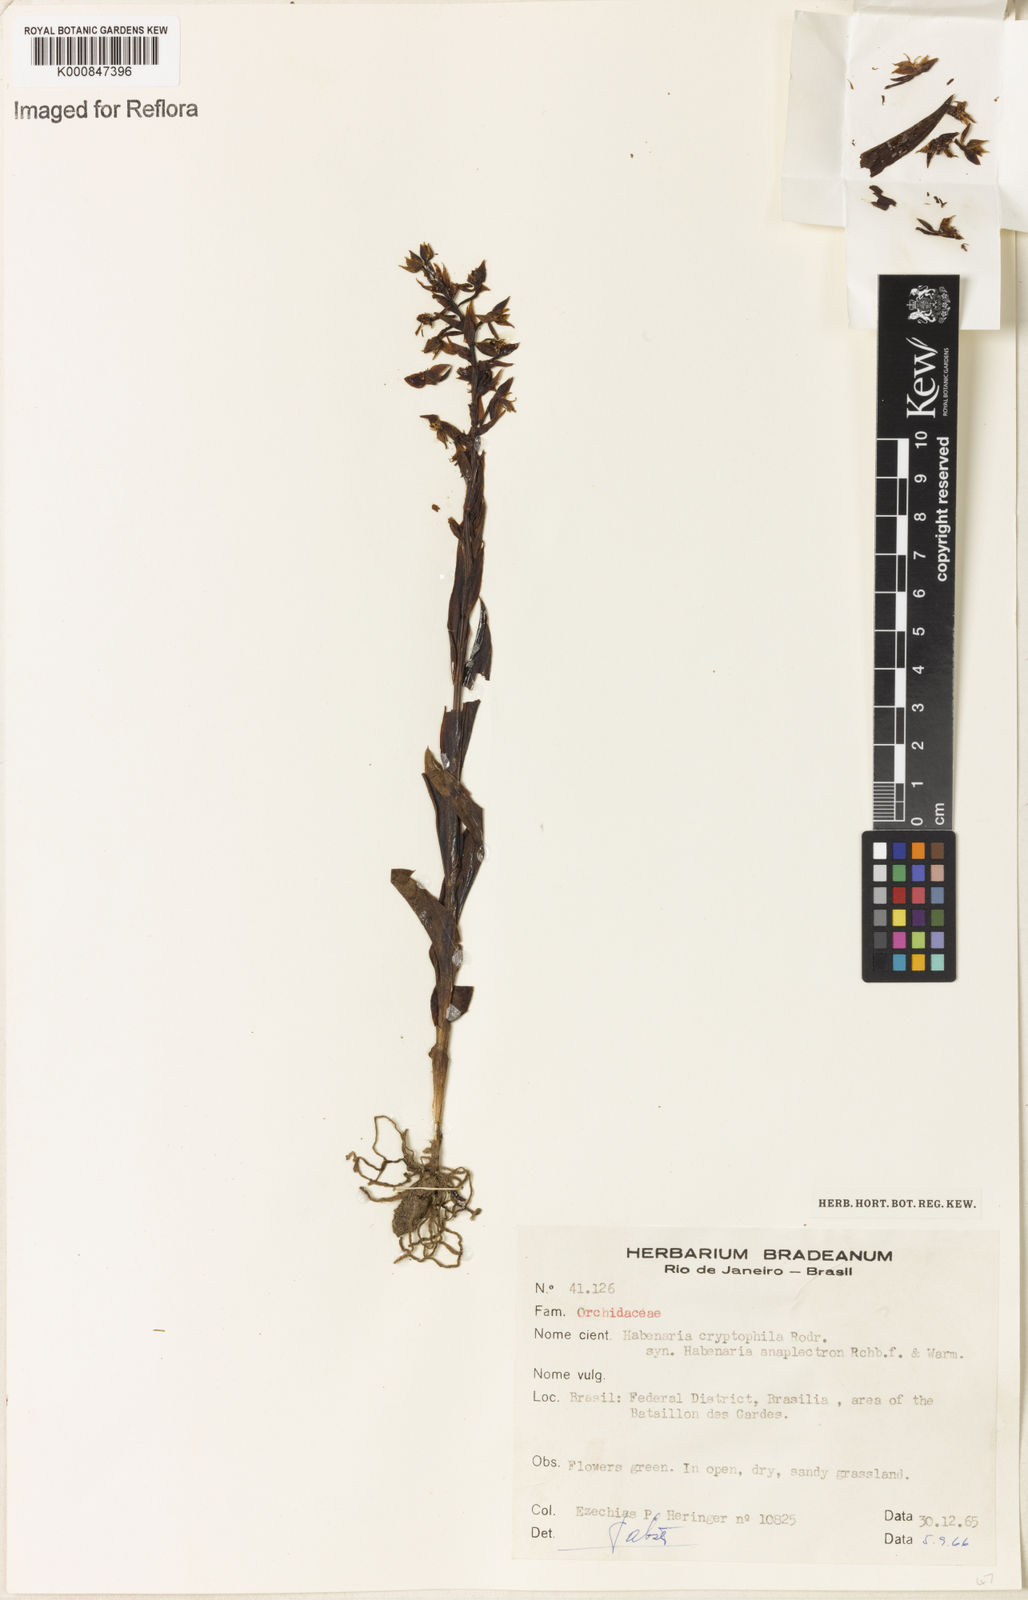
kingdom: Plantae
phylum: Tracheophyta
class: Liliopsida
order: Asparagales
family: Orchidaceae
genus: Habenaria
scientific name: Habenaria cryptophila
